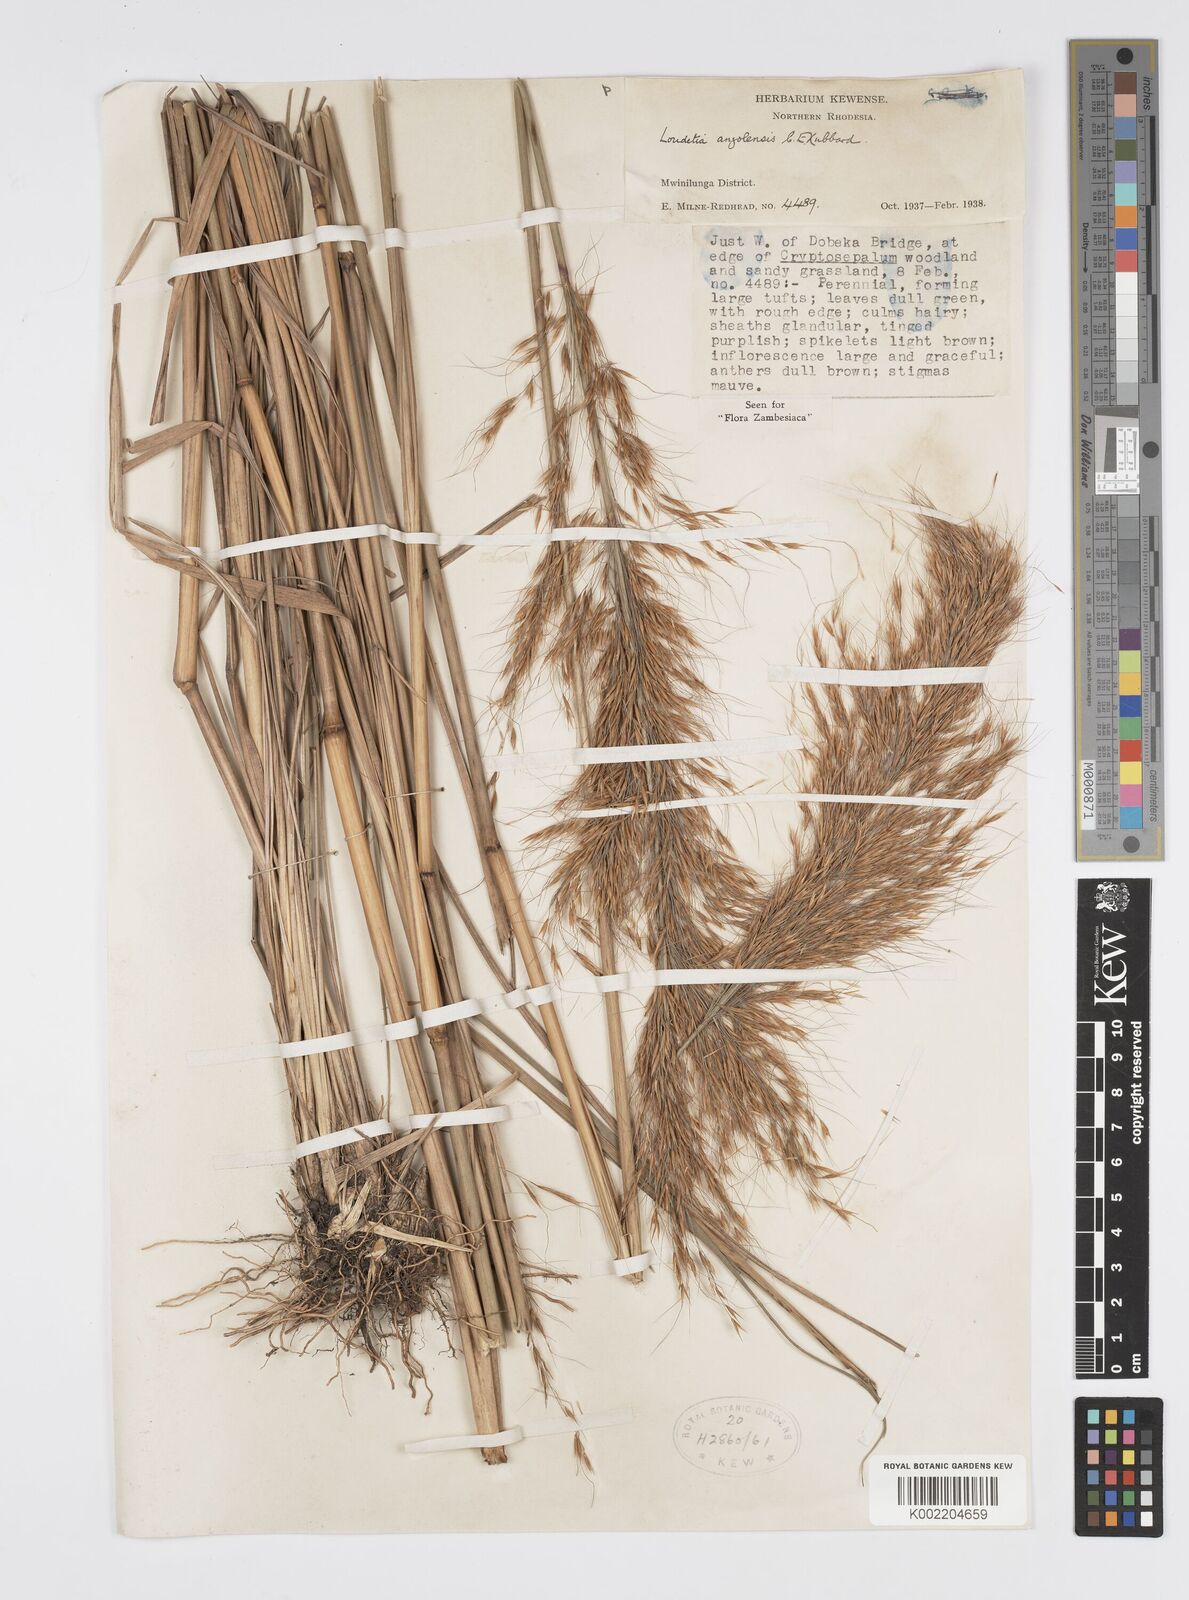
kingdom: Plantae
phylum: Tracheophyta
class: Liliopsida
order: Poales
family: Poaceae
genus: Loudetia
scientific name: Loudetia angolensis
